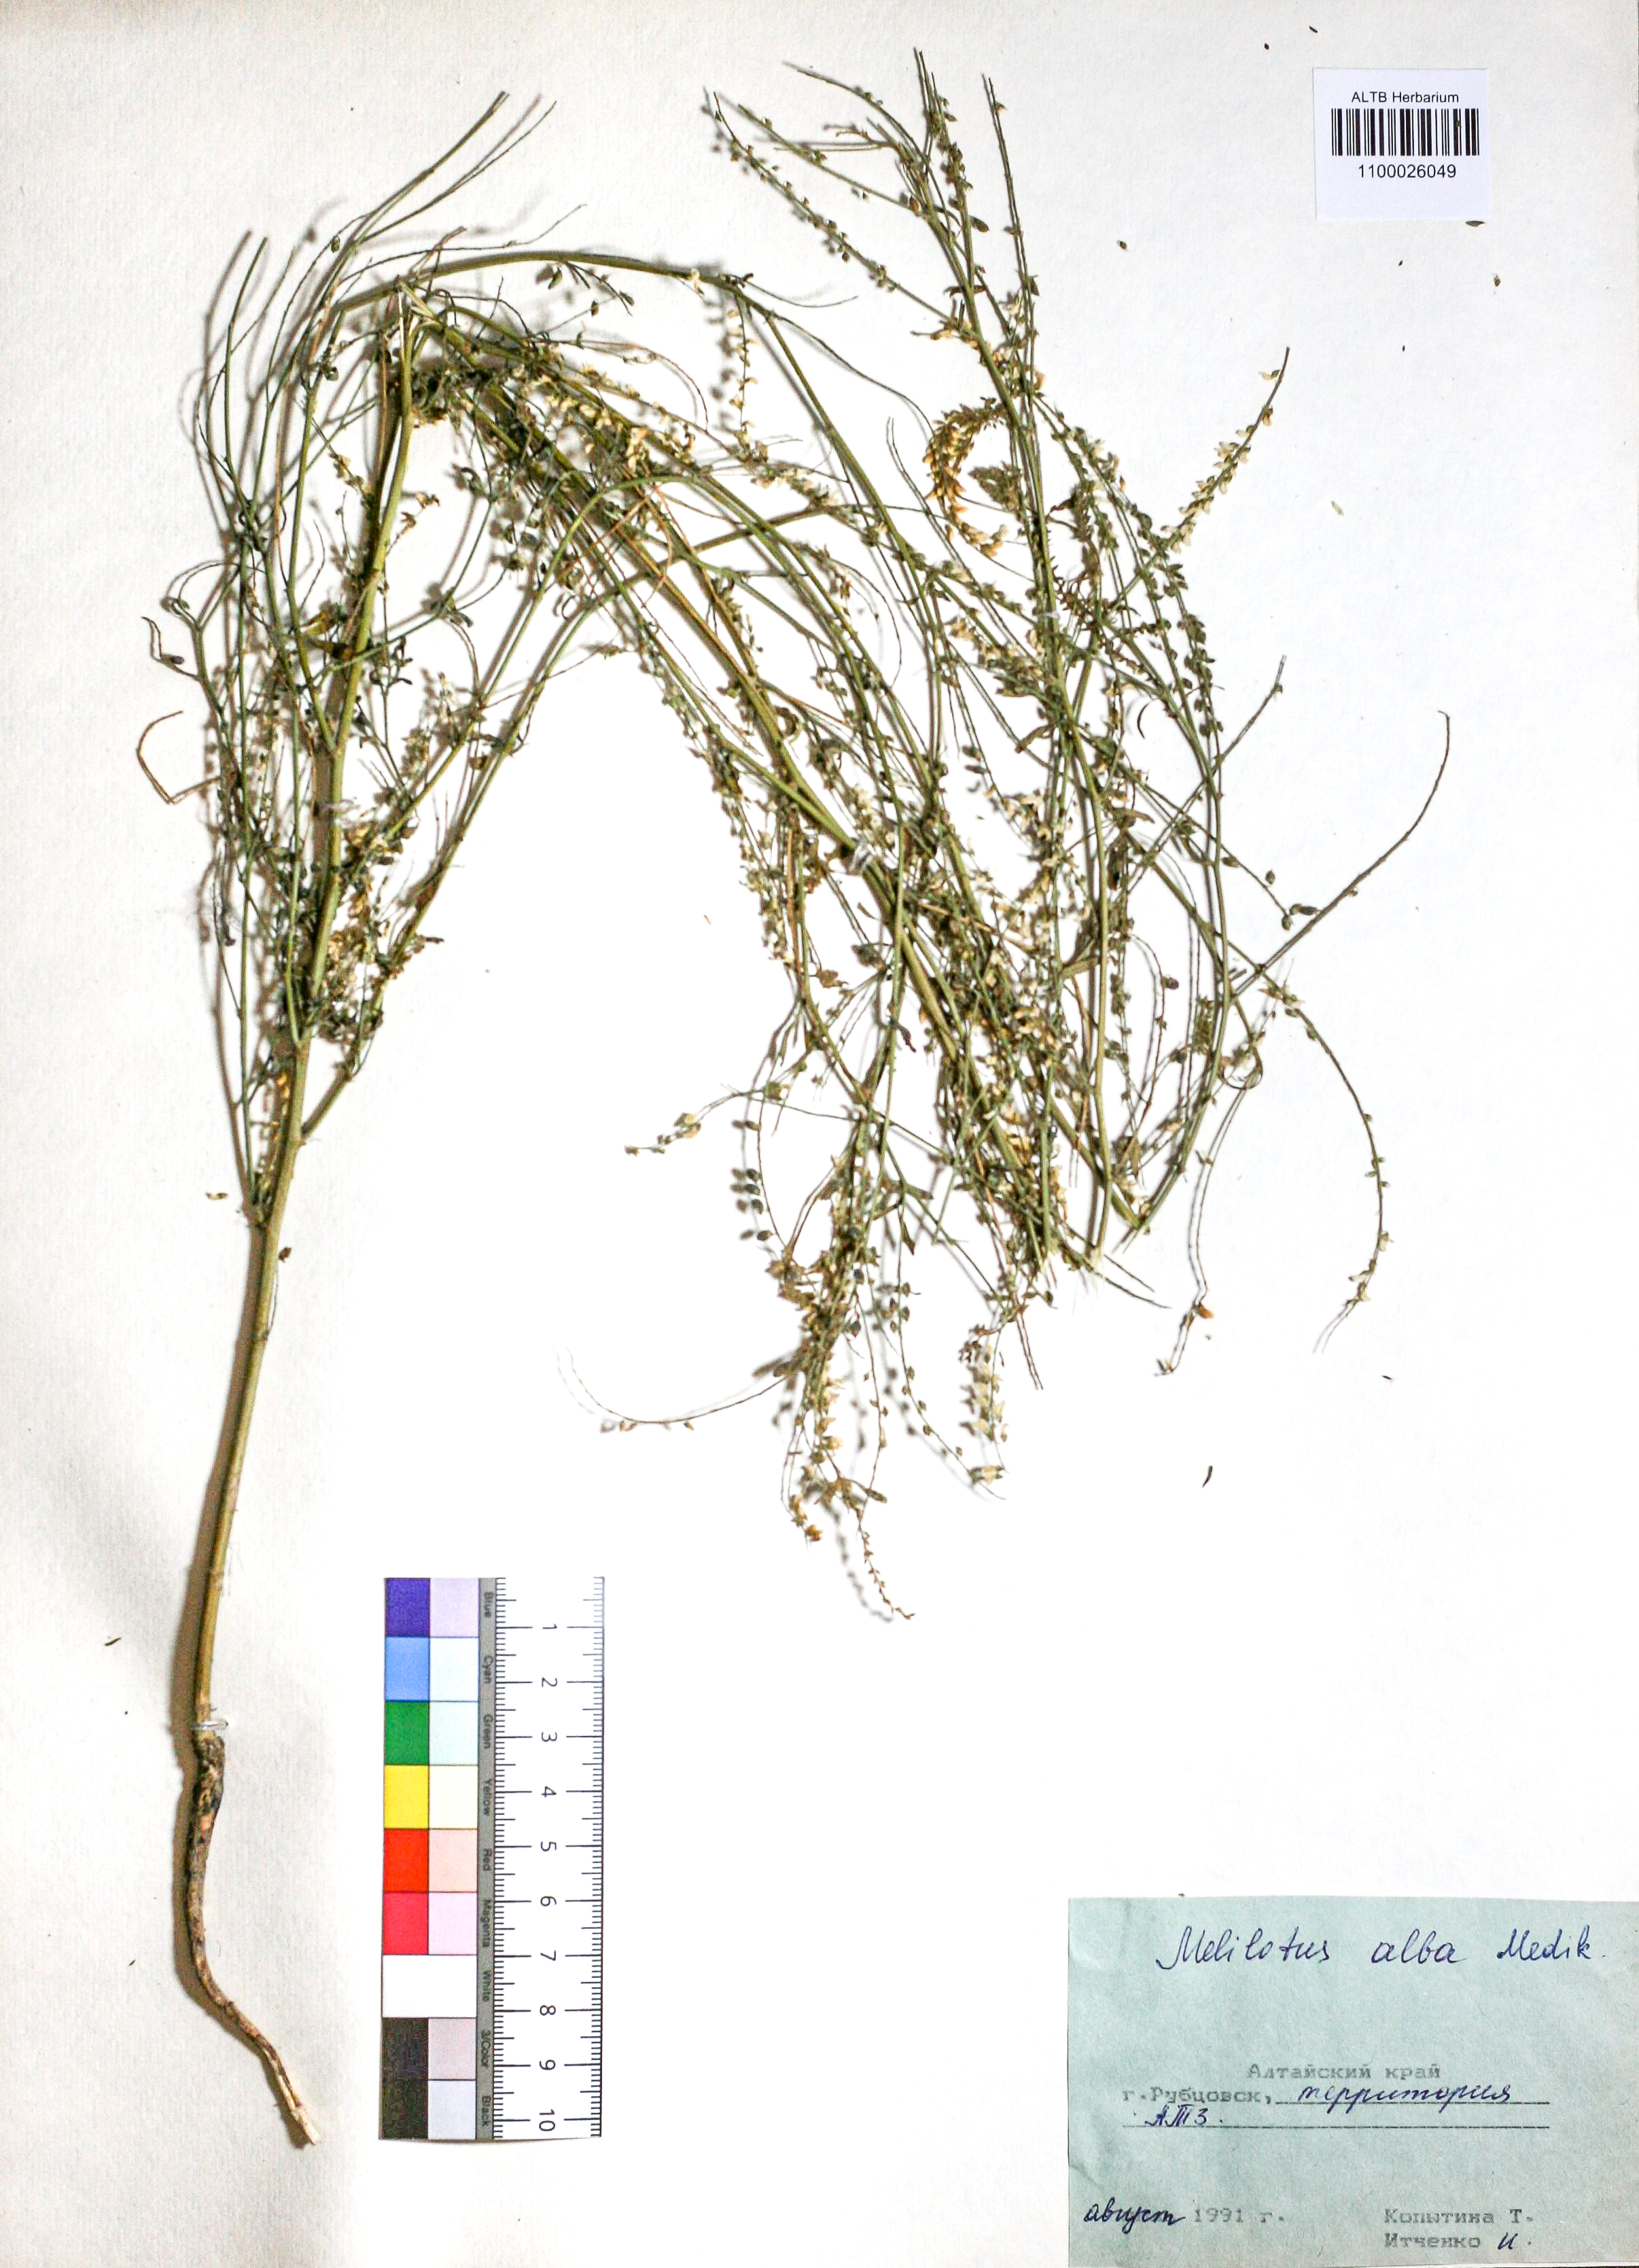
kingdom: Plantae
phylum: Tracheophyta
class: Magnoliopsida
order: Fabales
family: Fabaceae
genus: Melilotus
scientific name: Melilotus albus
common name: White melilot
